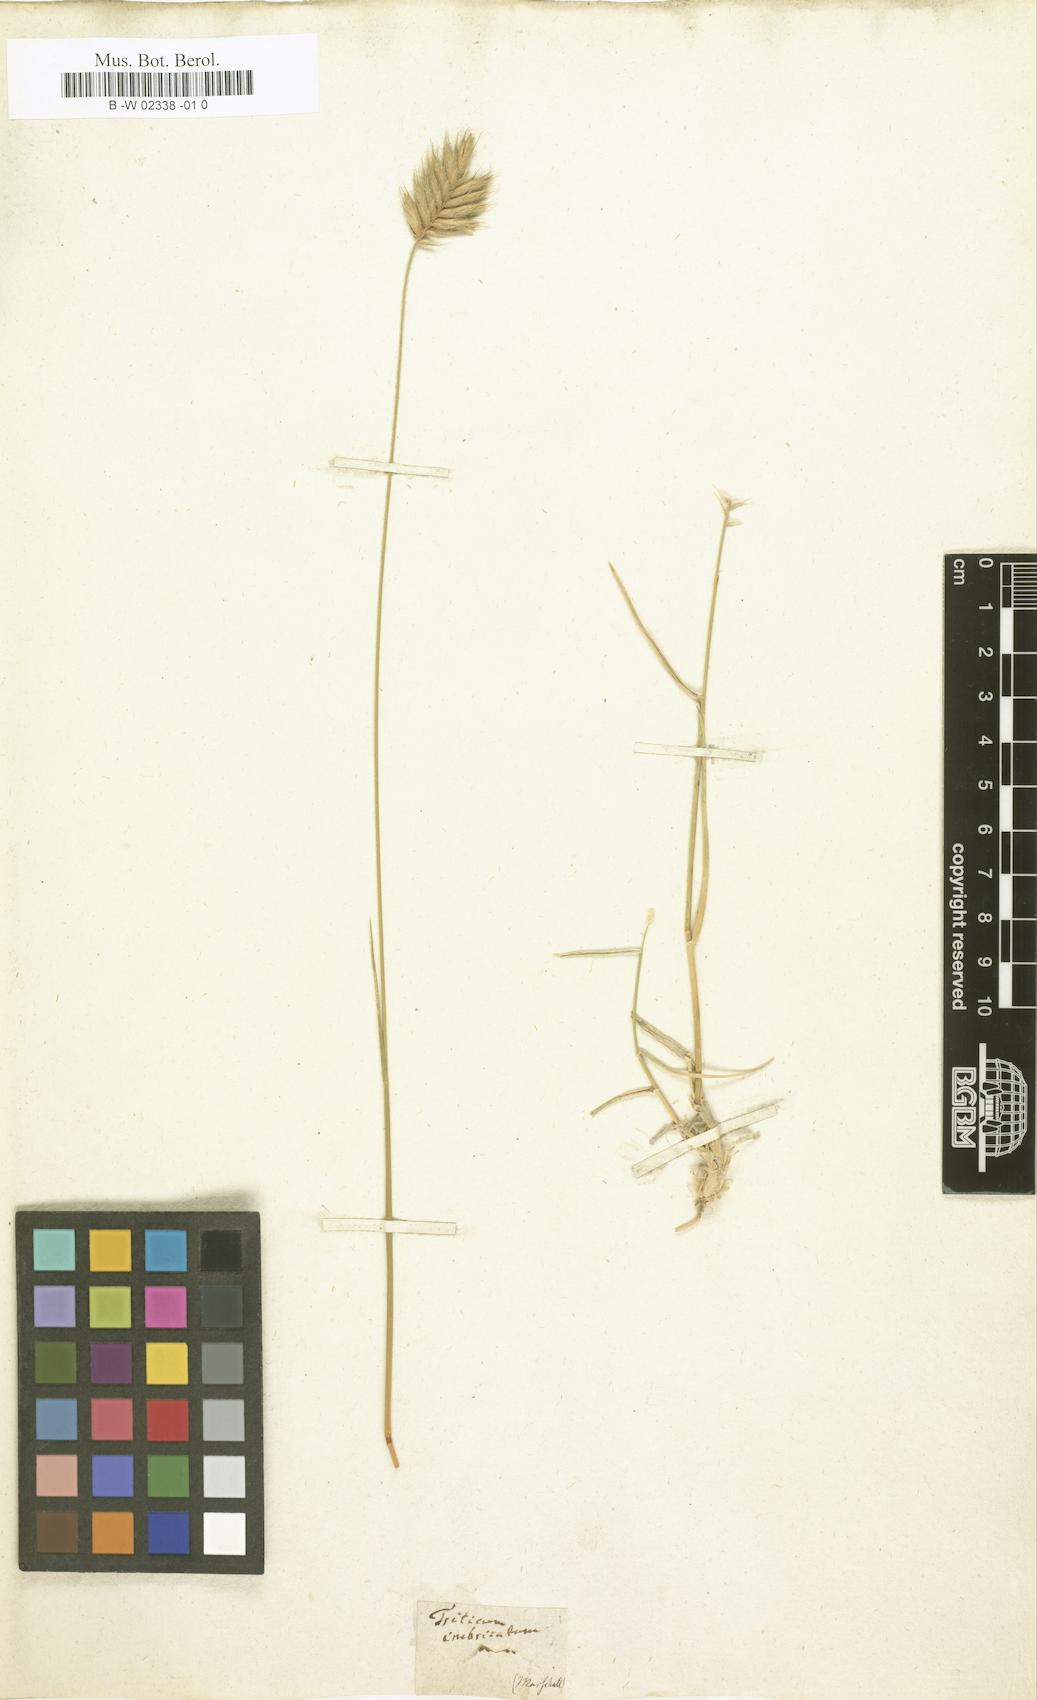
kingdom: Plantae
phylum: Tracheophyta
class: Liliopsida
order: Poales
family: Poaceae
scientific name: Poaceae
